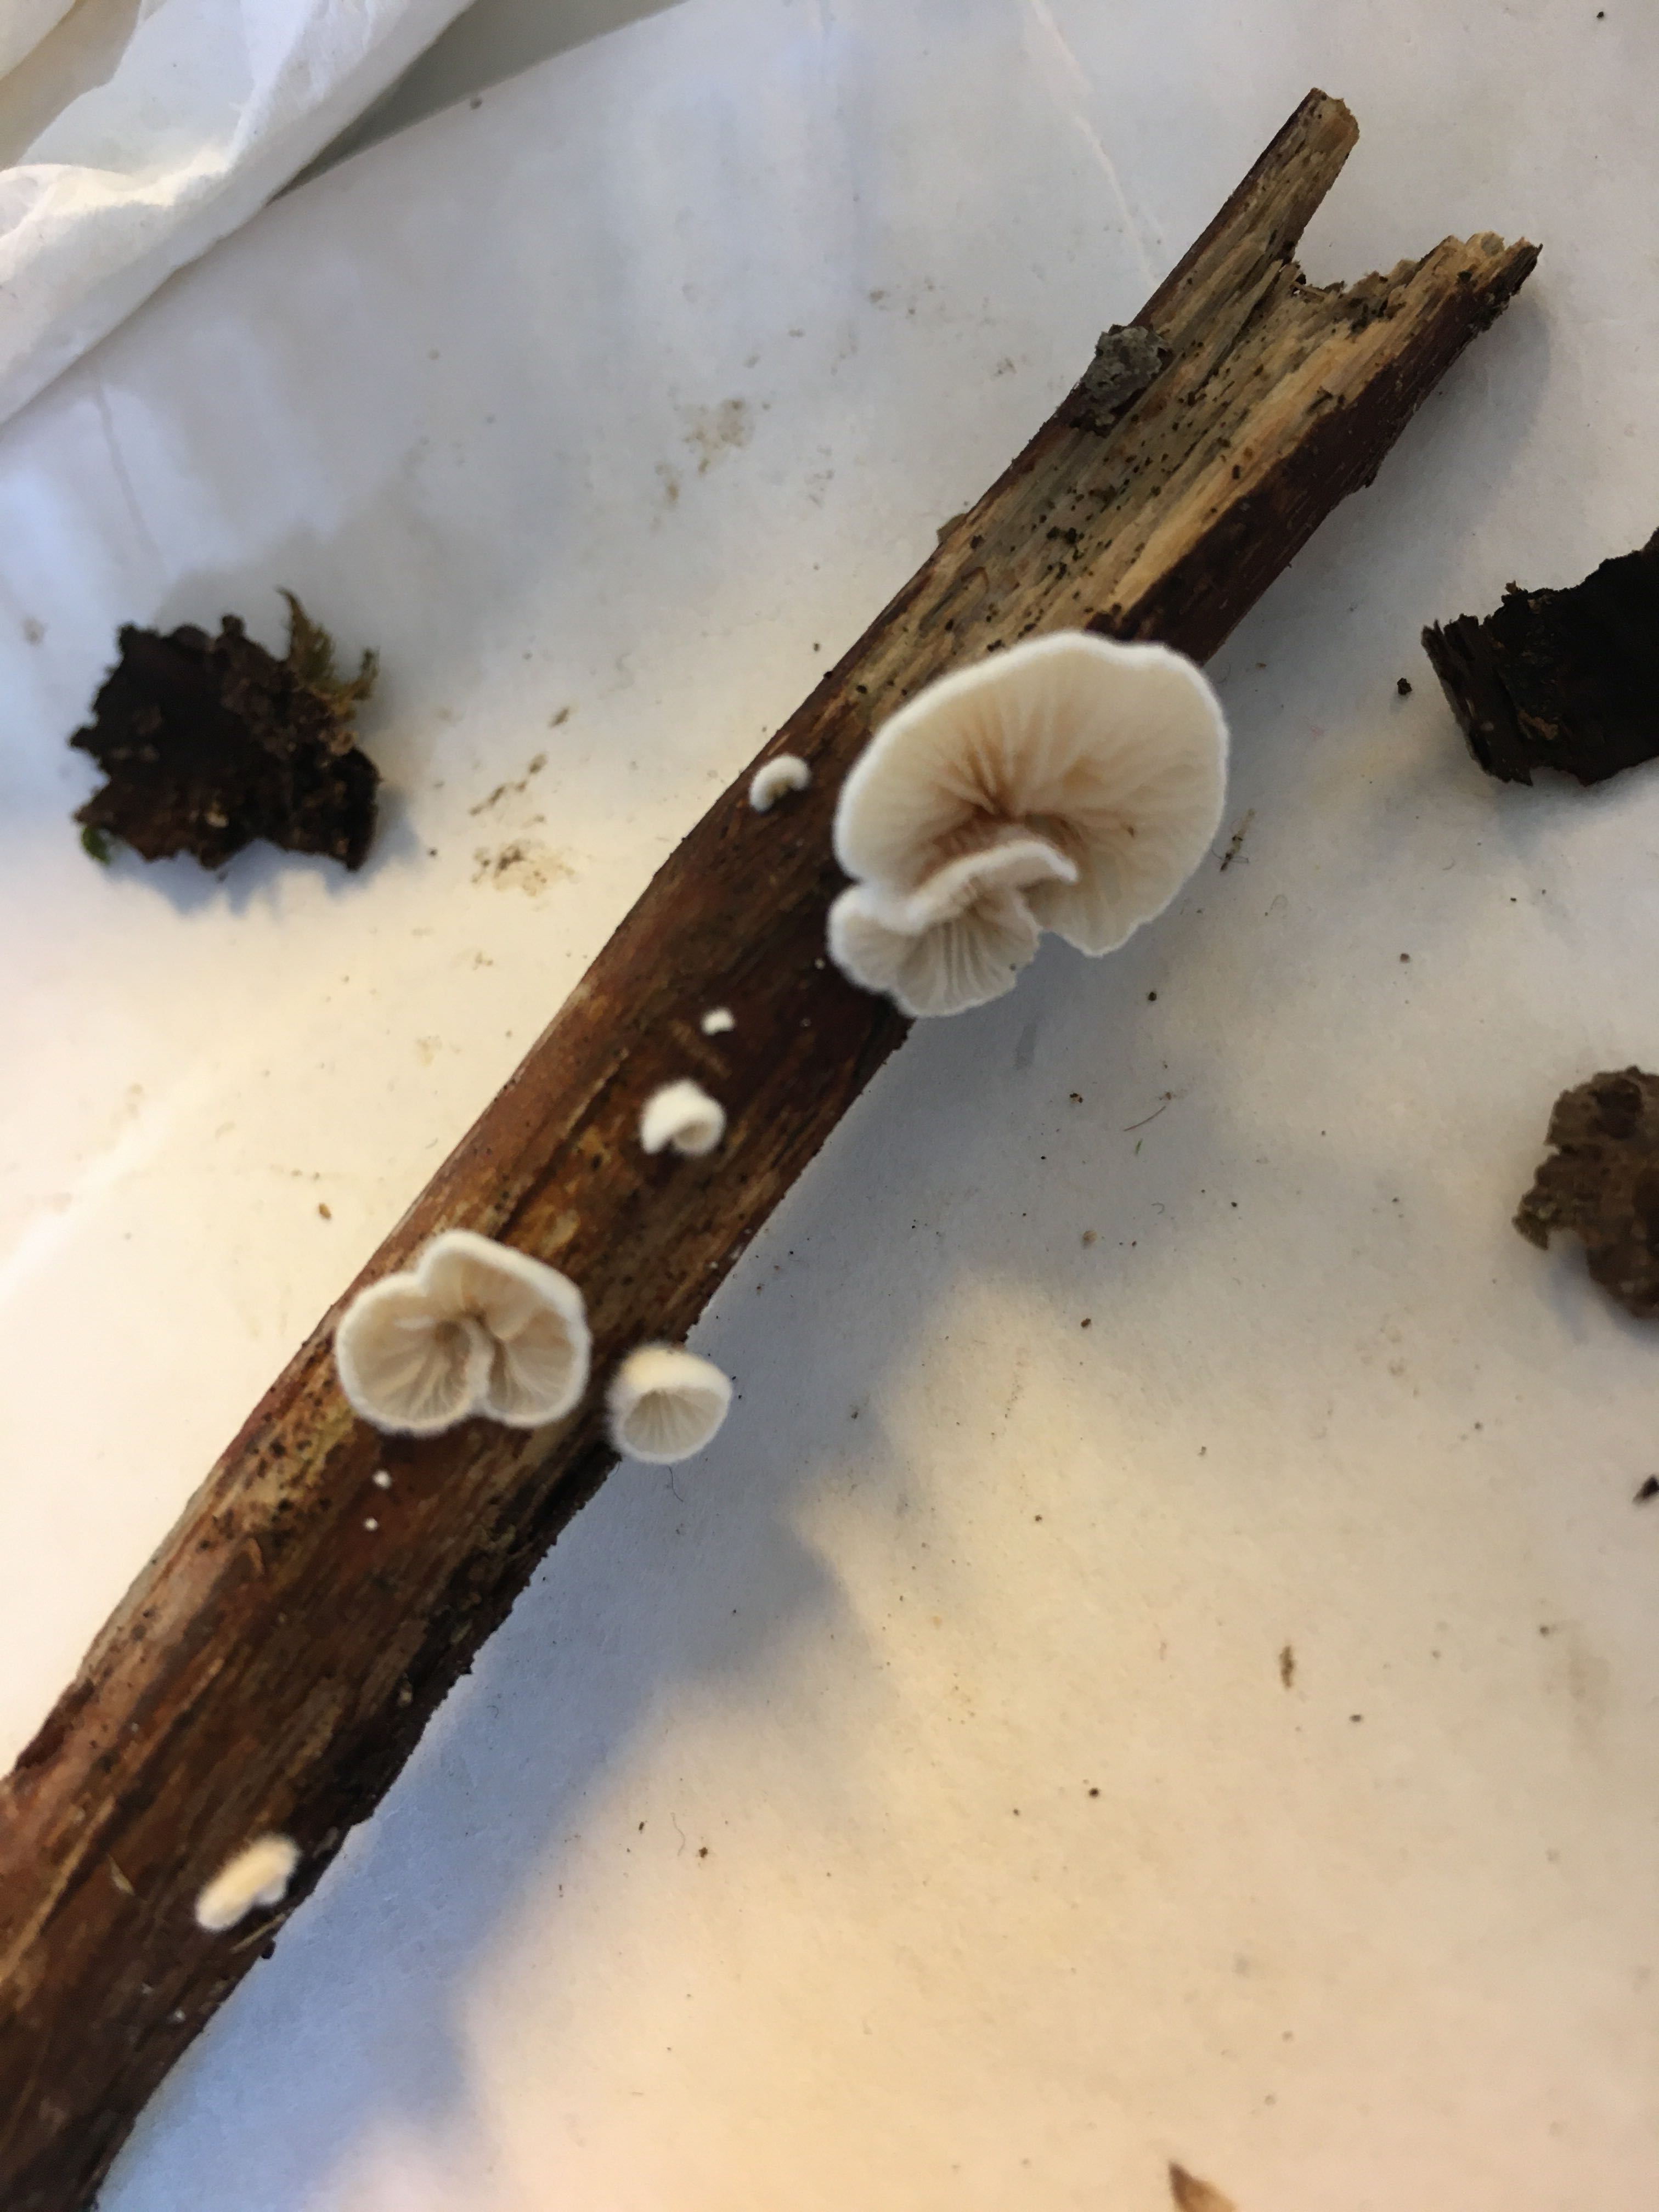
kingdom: Fungi
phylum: Basidiomycota
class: Agaricomycetes
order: Agaricales
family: Crepidotaceae
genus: Crepidotus
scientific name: Crepidotus cesatii
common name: almindelig muslingesvamp
